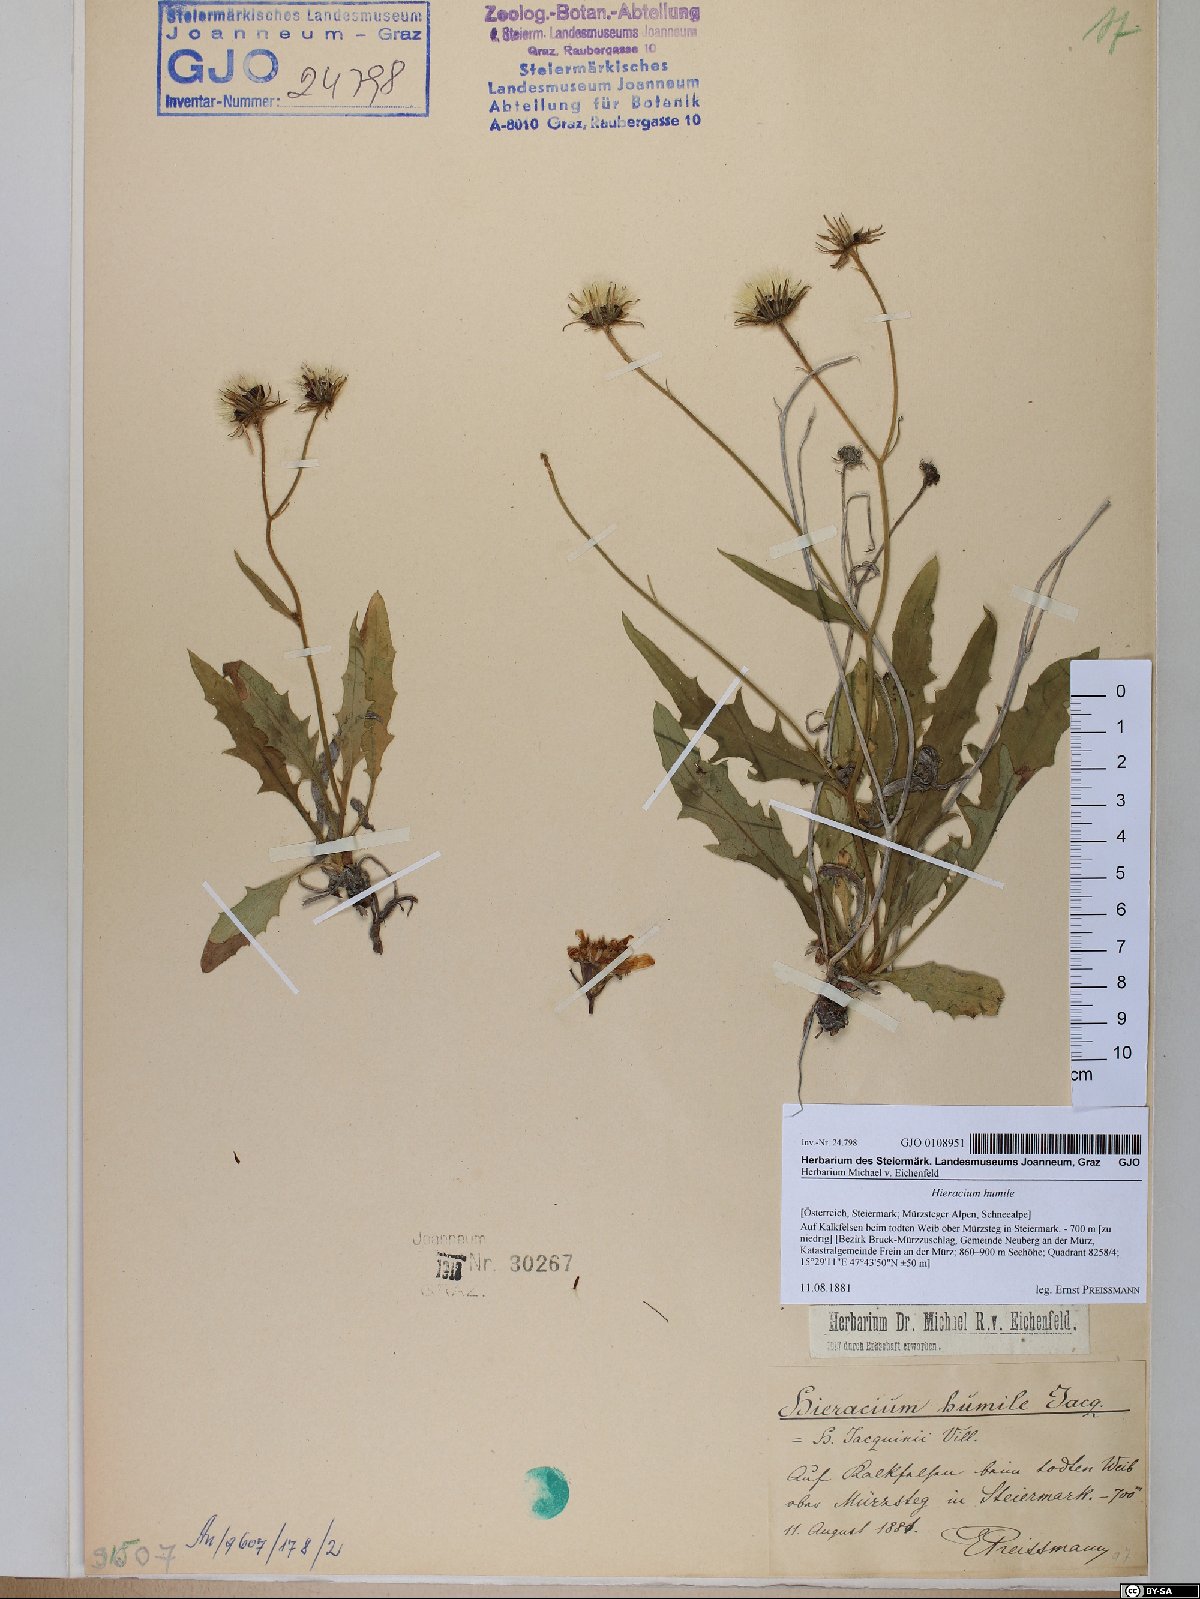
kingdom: Plantae
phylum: Tracheophyta
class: Magnoliopsida
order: Asterales
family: Asteraceae
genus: Hieracium
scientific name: Hieracium humile
